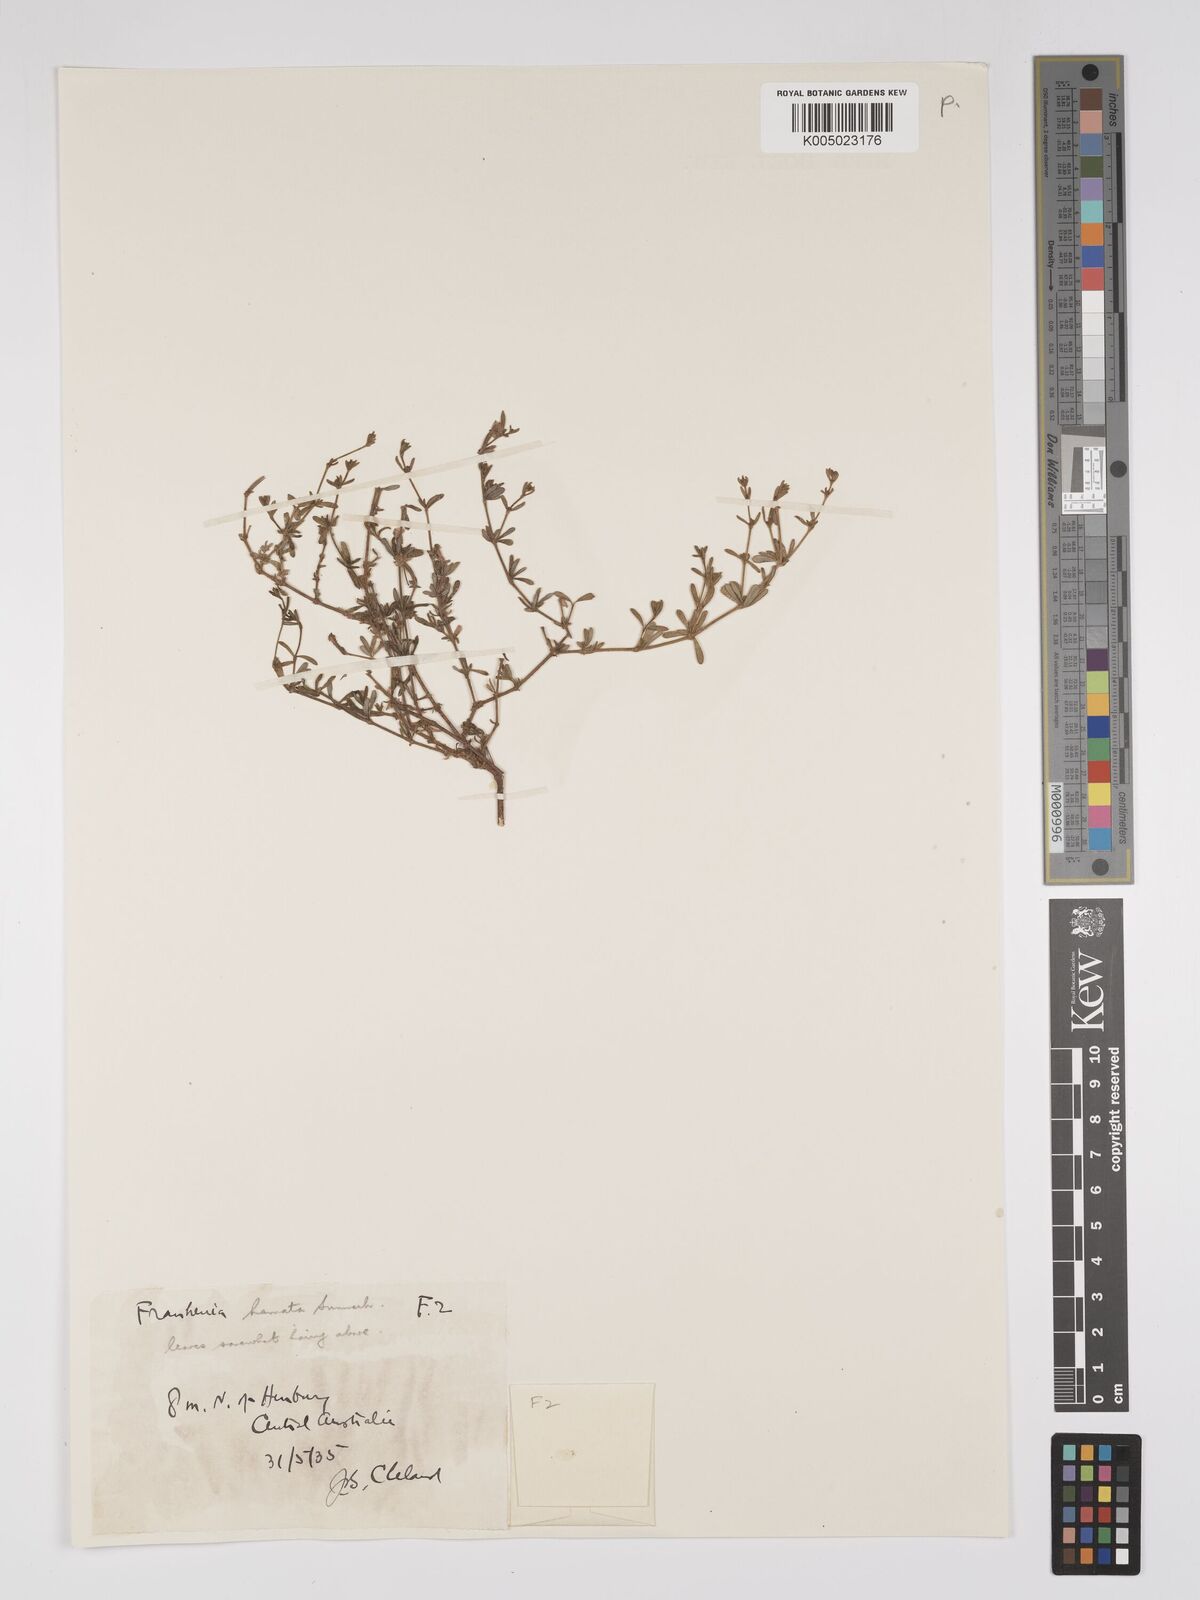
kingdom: Plantae
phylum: Tracheophyta
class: Magnoliopsida
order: Caryophyllales
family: Frankeniaceae
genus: Frankenia
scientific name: Frankenia uncinata
